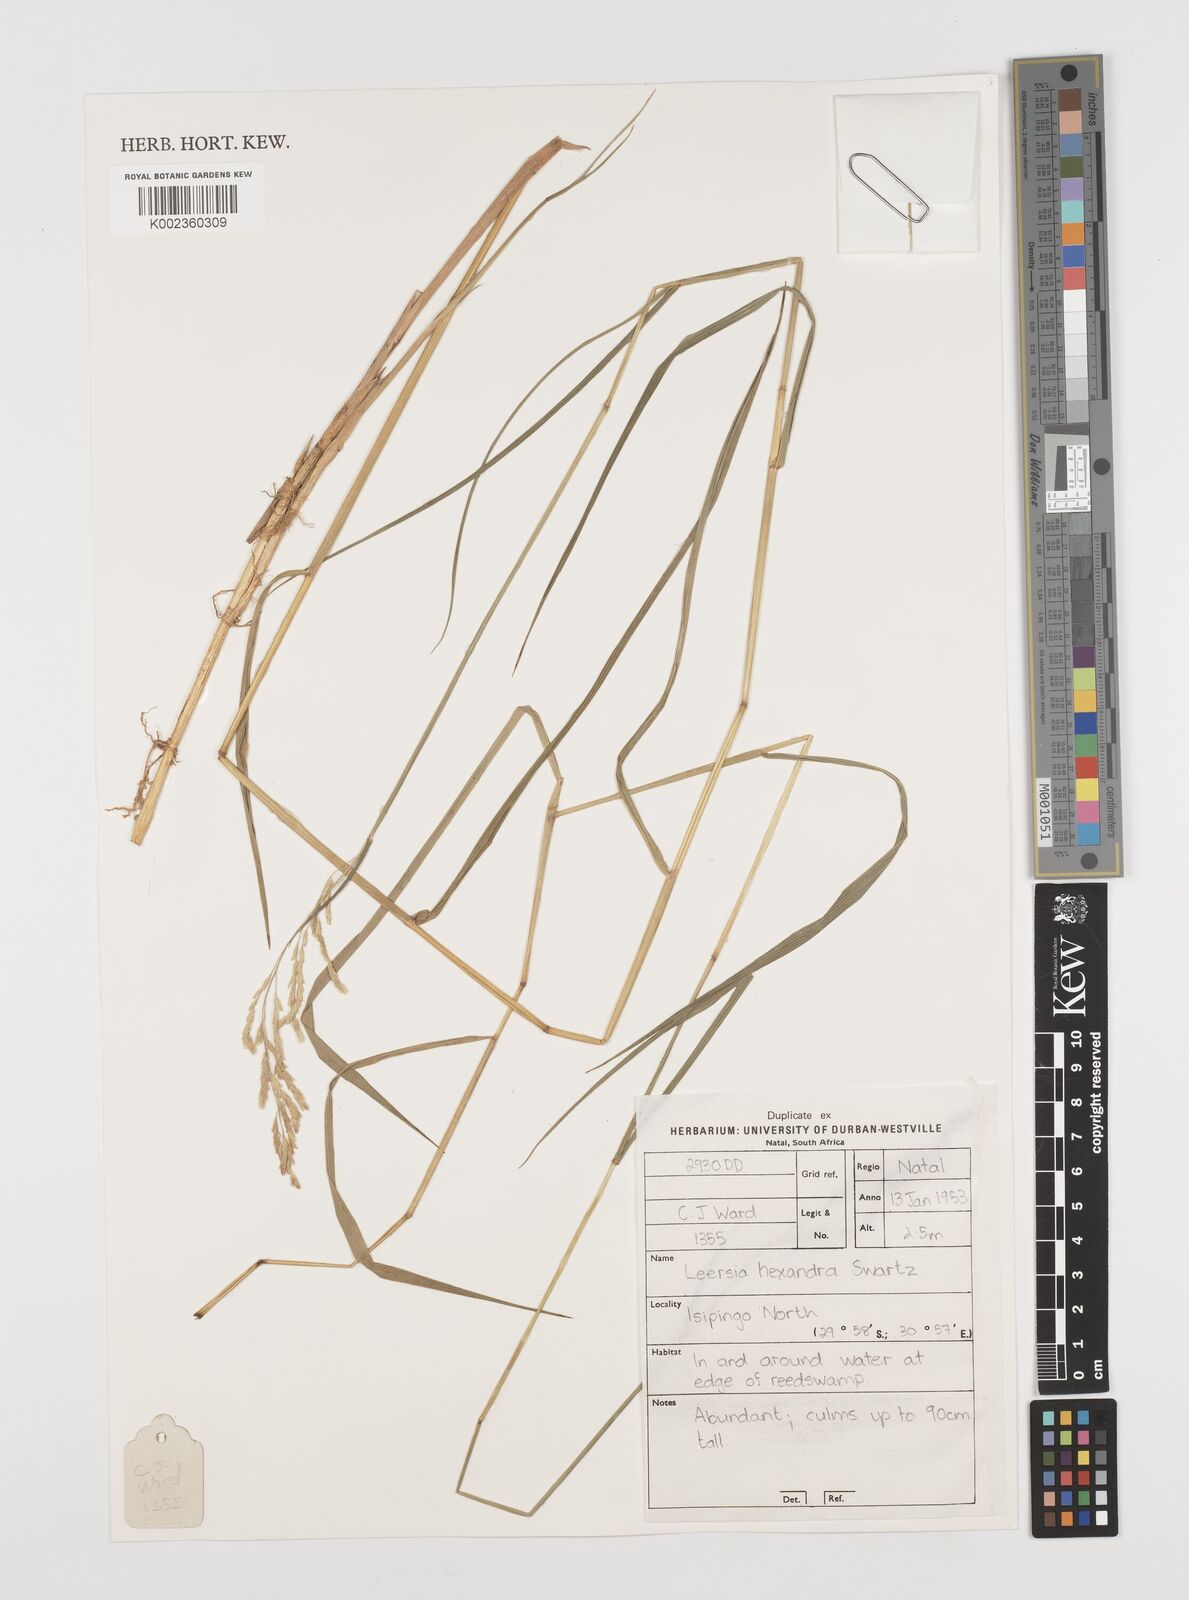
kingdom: Plantae
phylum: Tracheophyta
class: Liliopsida
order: Poales
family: Poaceae
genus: Leersia
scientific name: Leersia hexandra
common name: Southern cut grass
